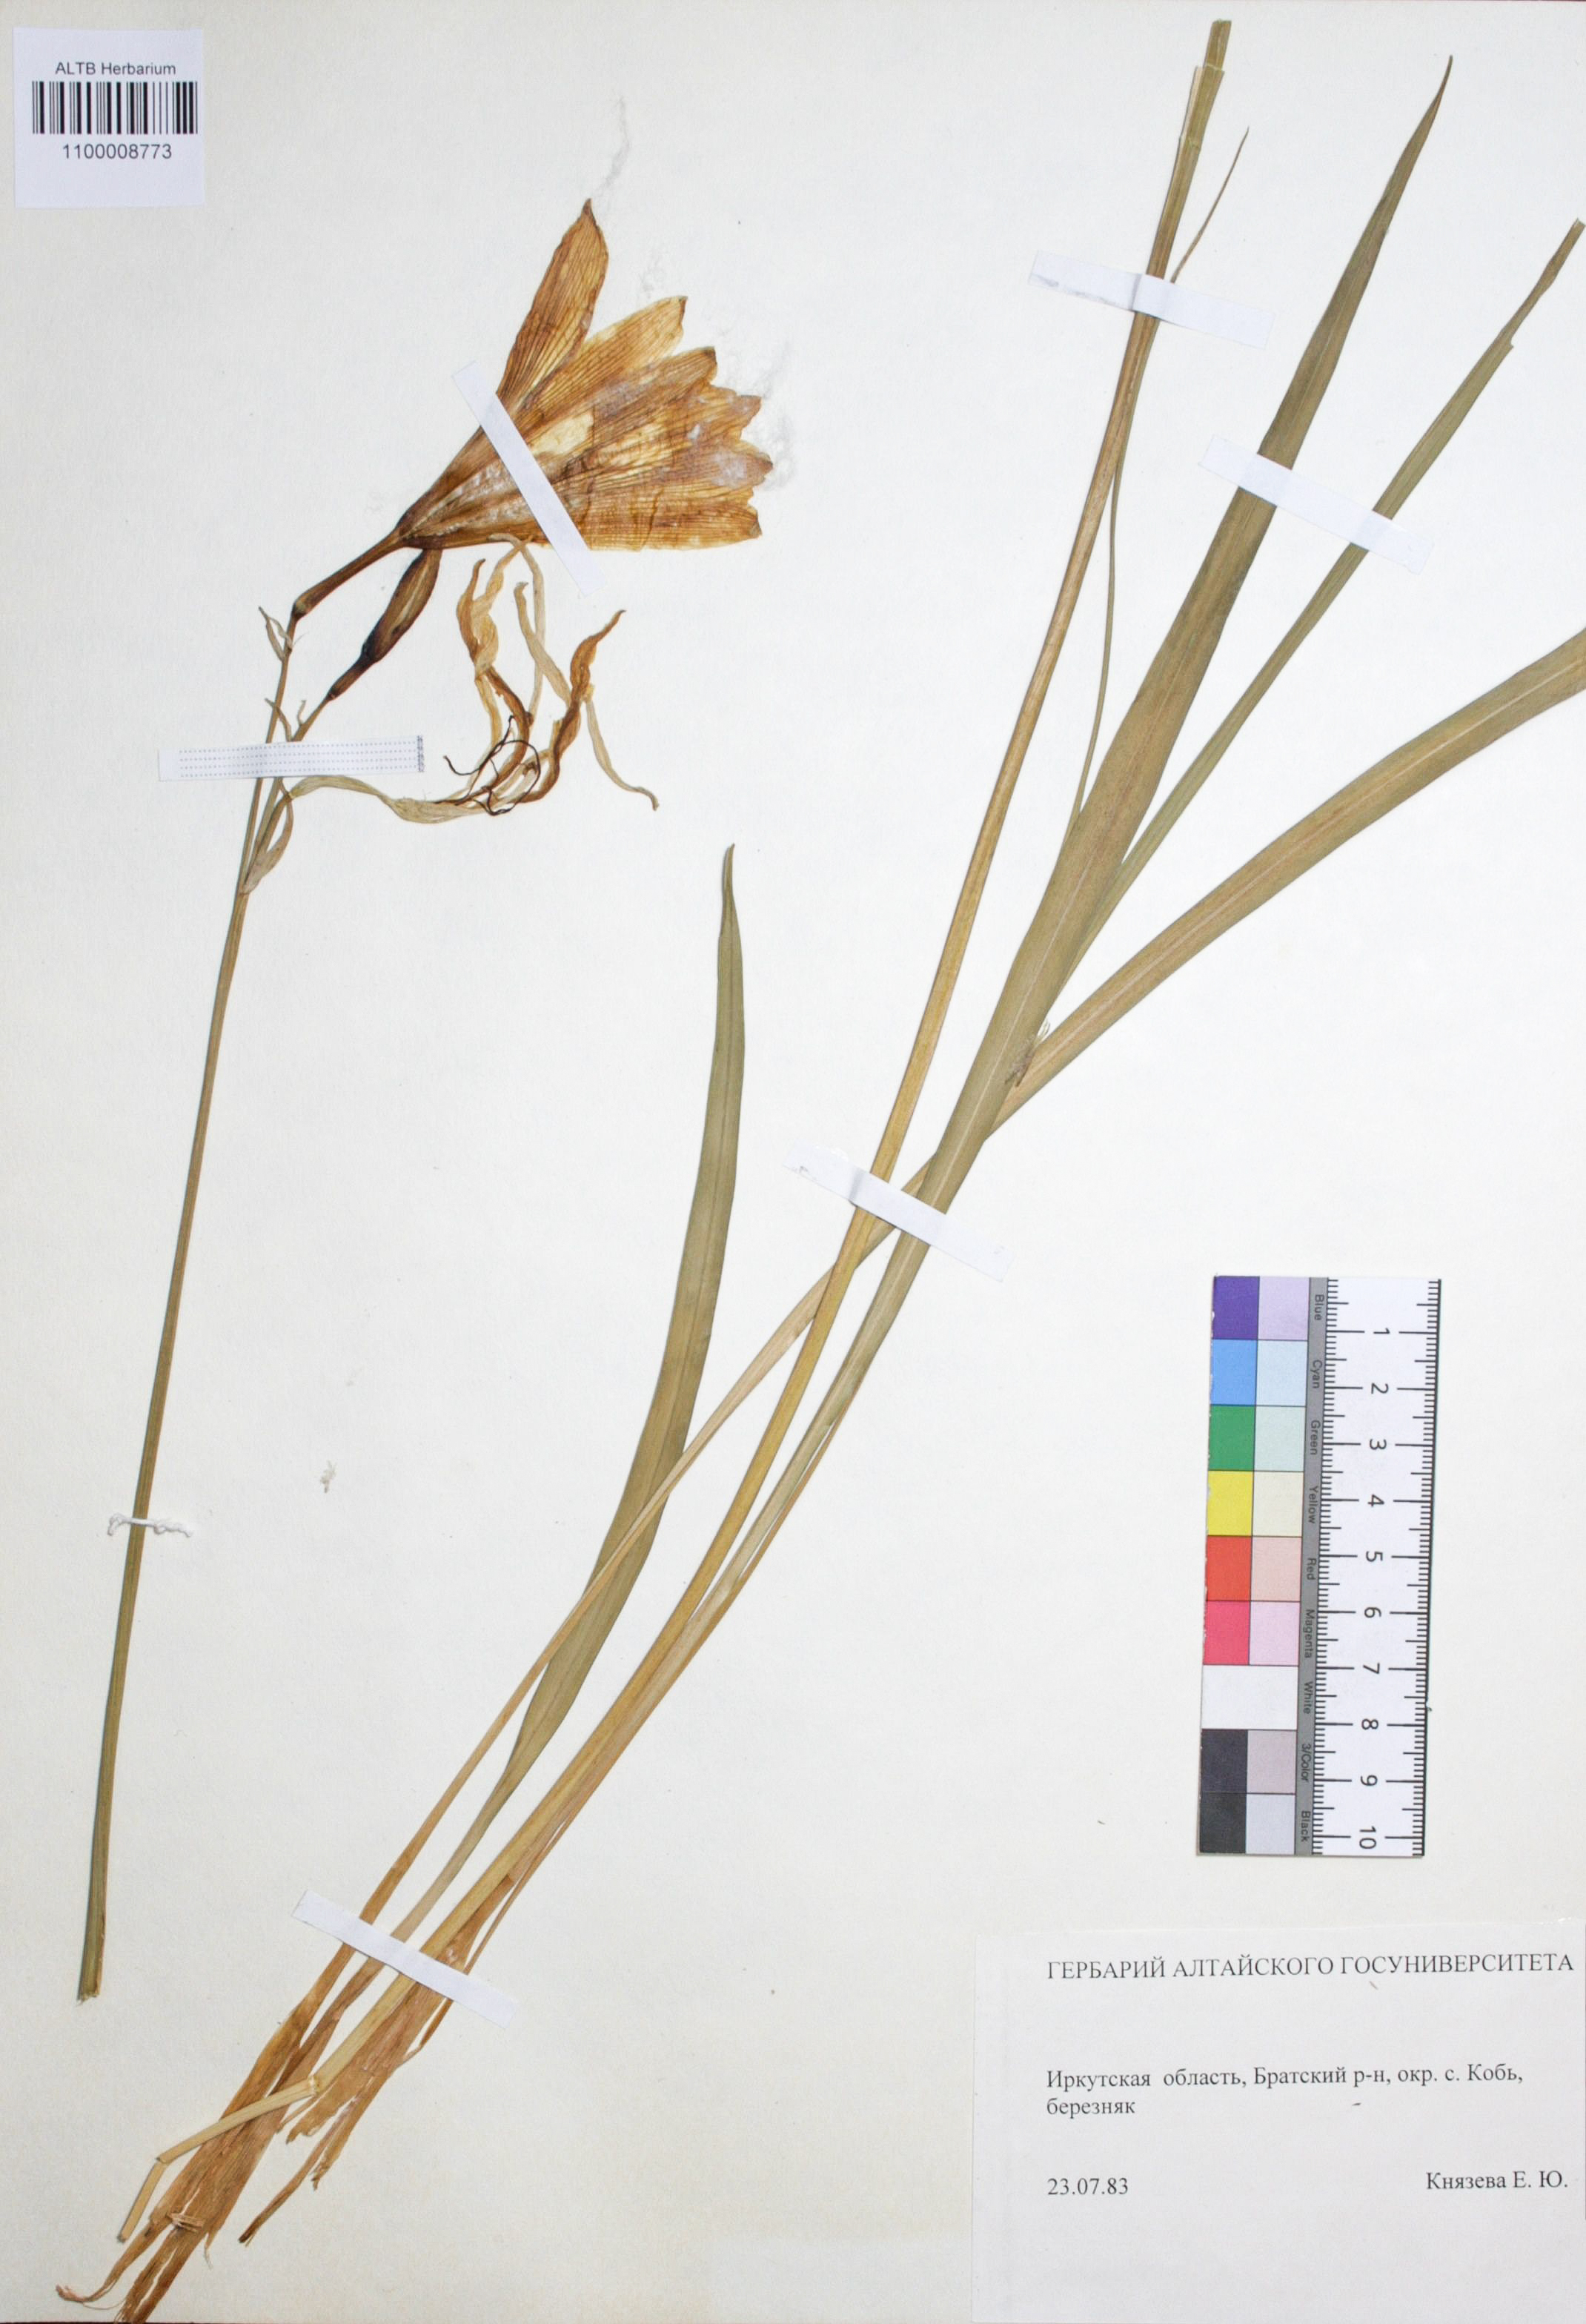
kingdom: Plantae
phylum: Tracheophyta
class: Liliopsida
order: Asparagales
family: Asphodelaceae
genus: Hemerocallis
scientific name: Hemerocallis minor
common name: Small daylily
